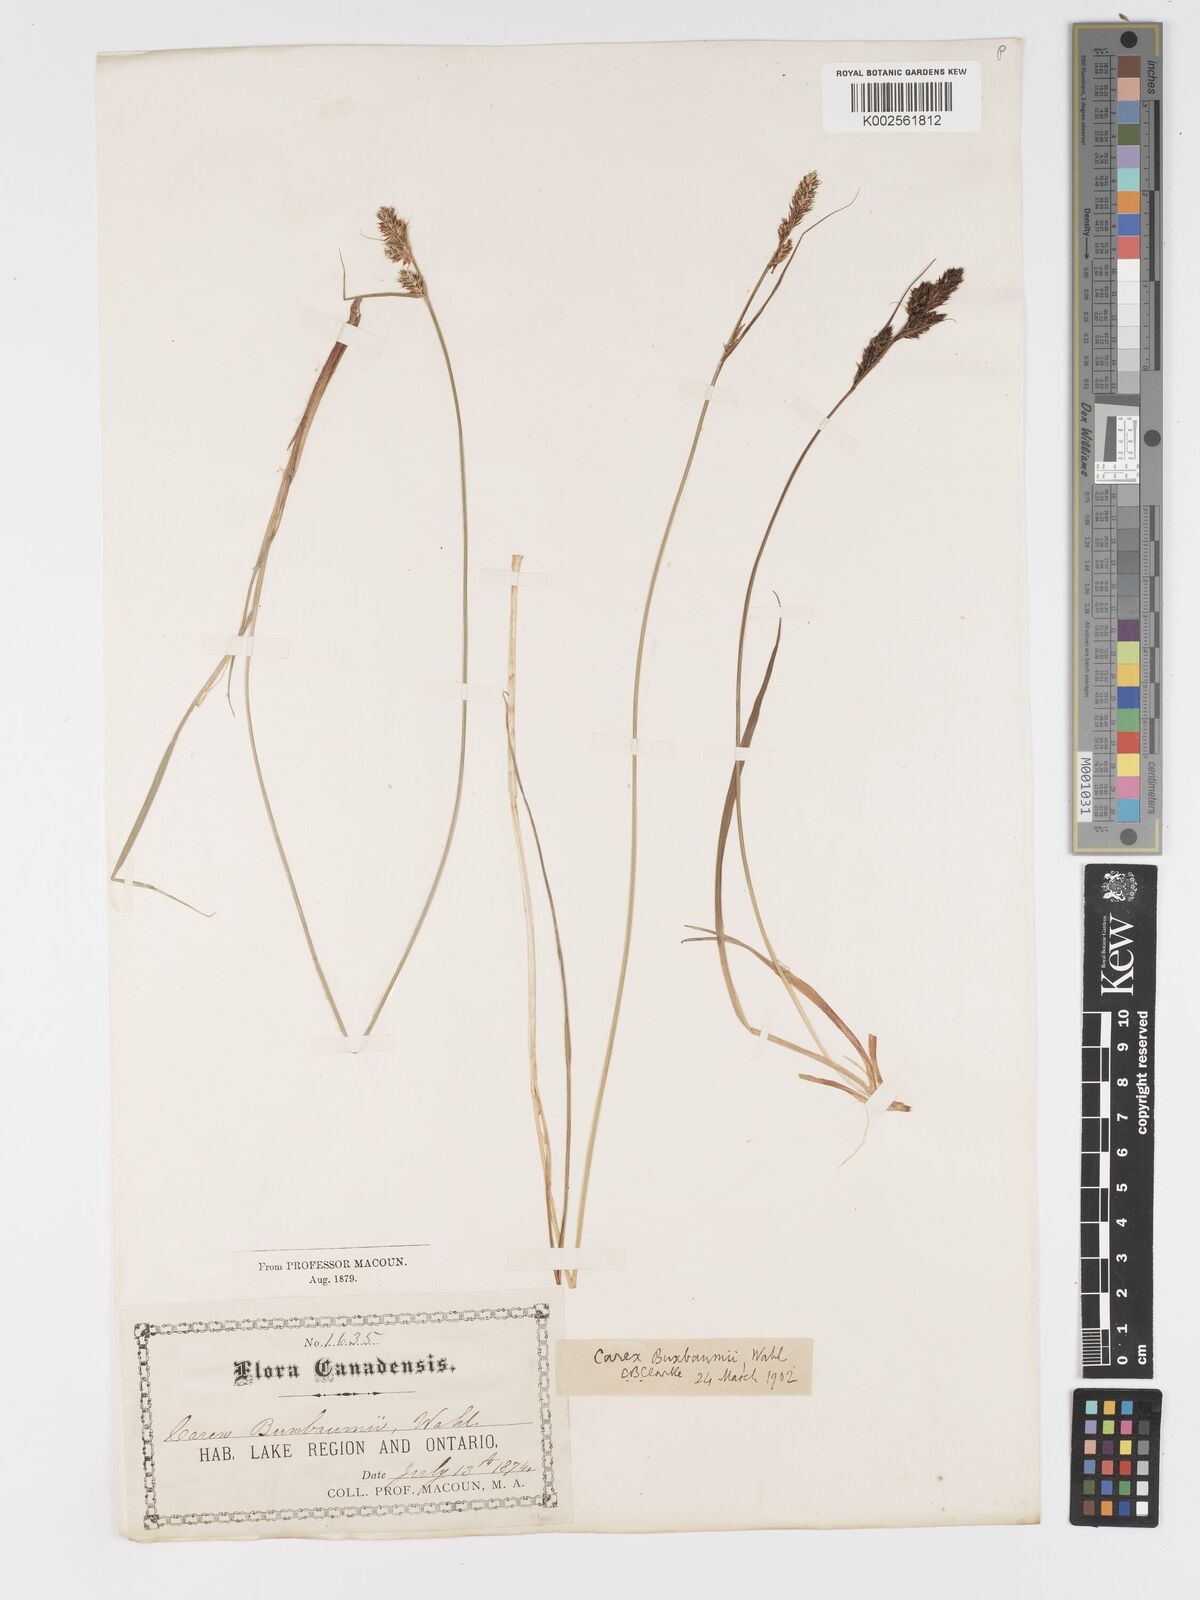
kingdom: Plantae
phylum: Tracheophyta
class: Liliopsida
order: Poales
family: Cyperaceae
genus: Carex
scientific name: Carex buxbaumii
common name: Club sedge
